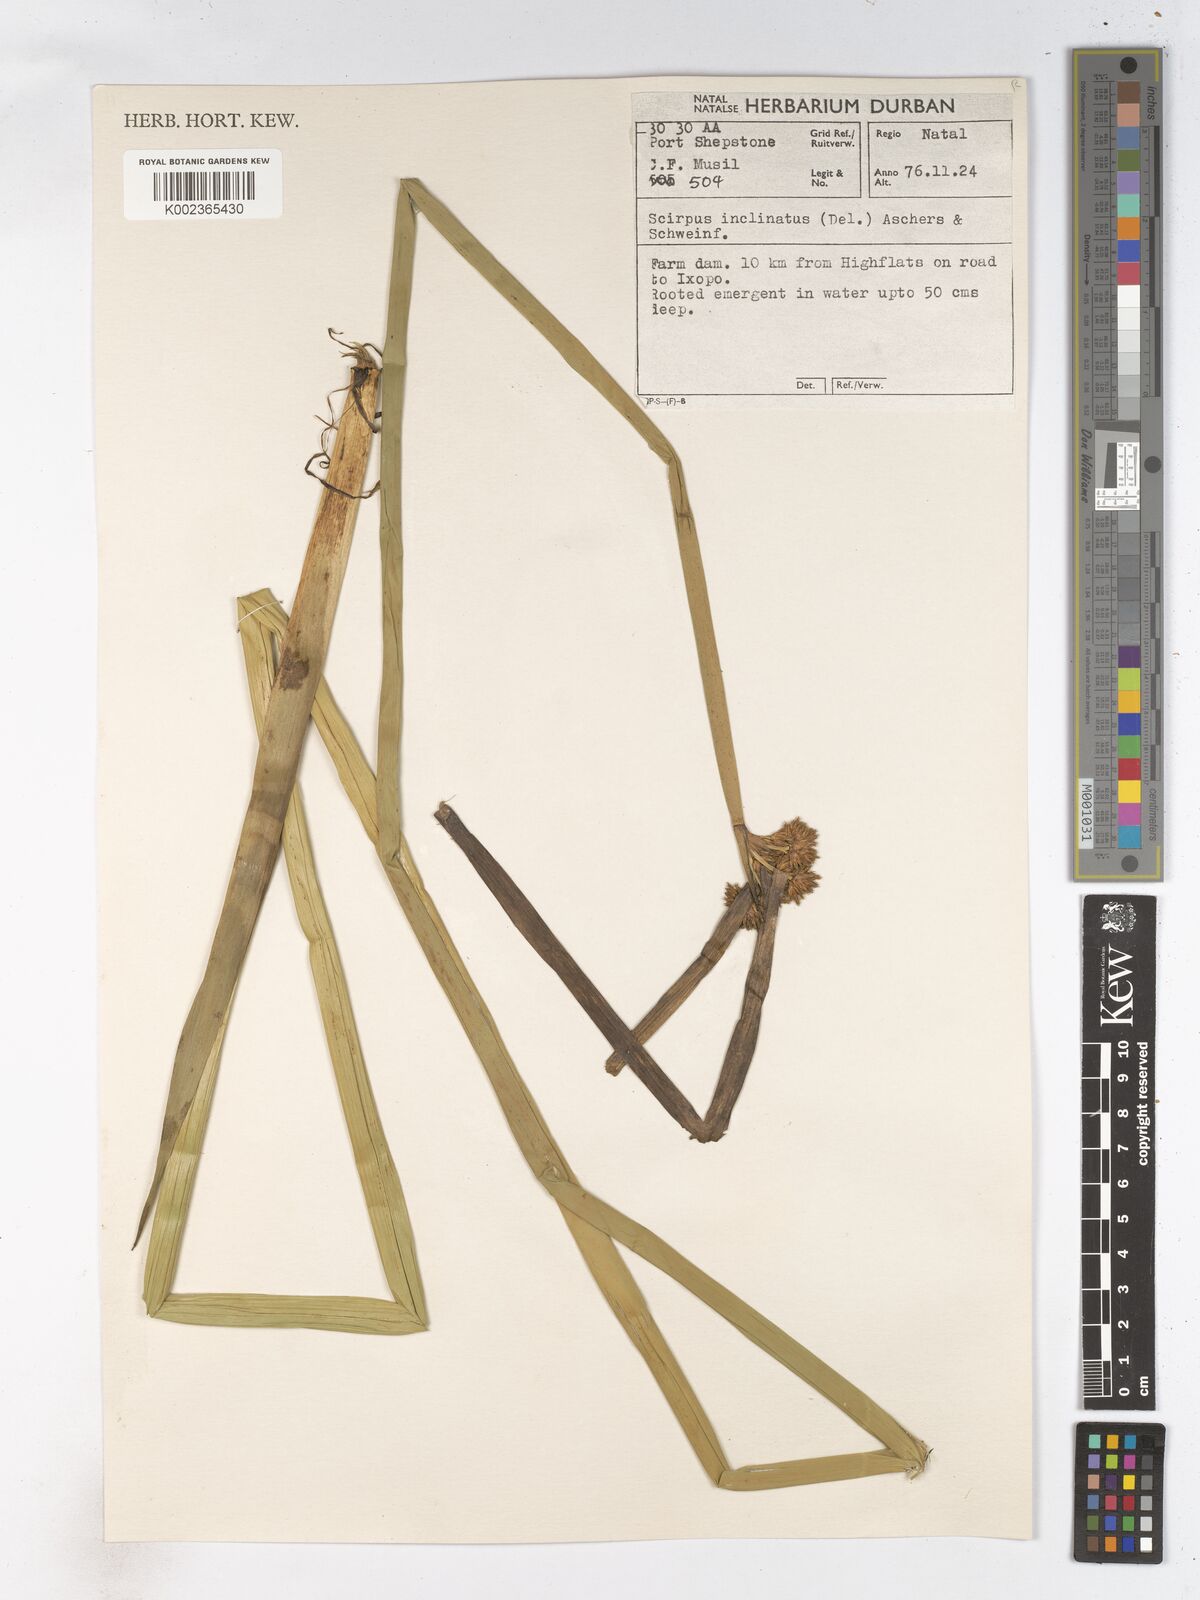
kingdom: Plantae
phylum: Tracheophyta
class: Liliopsida
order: Poales
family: Cyperaceae
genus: Schoenoplectiella
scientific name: Schoenoplectiella brachyceras
